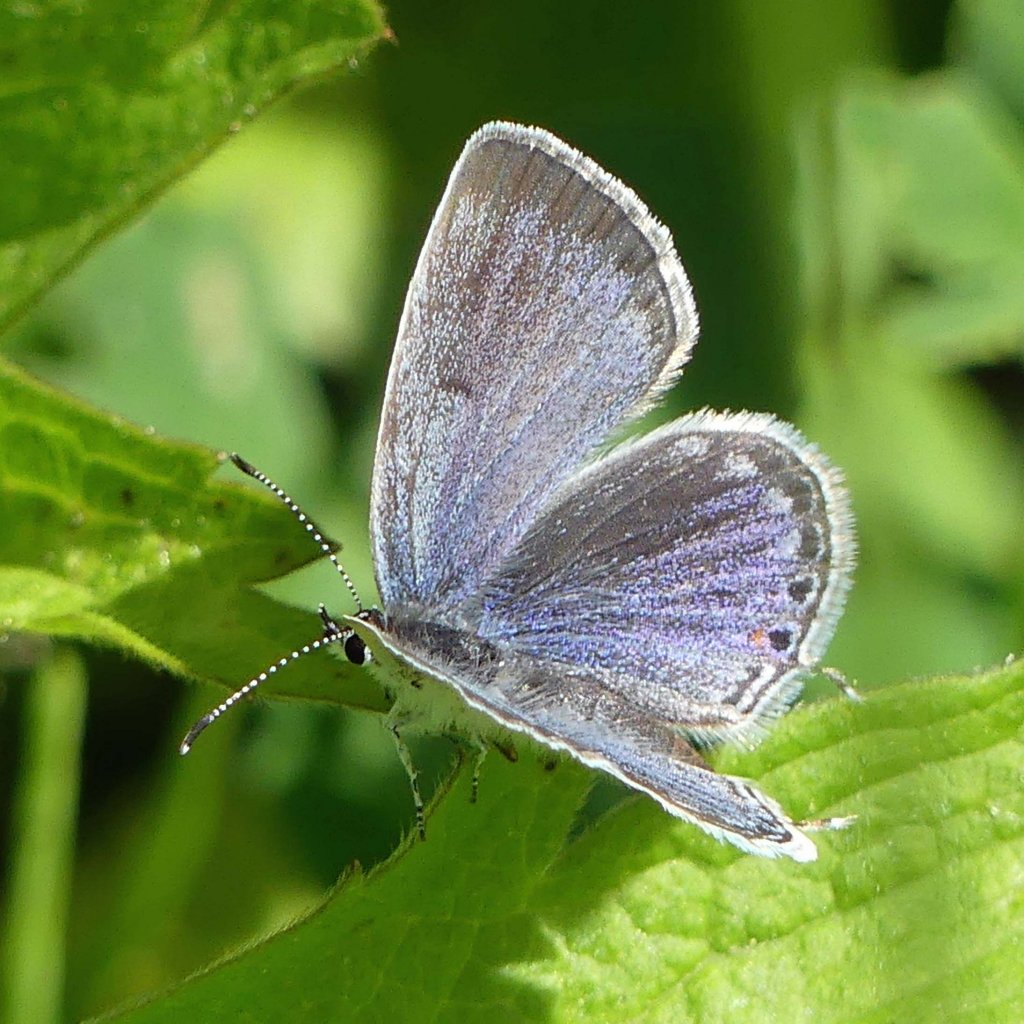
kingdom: Animalia
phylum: Arthropoda
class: Insecta
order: Lepidoptera
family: Lycaenidae
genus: Elkalyce
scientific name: Elkalyce comyntas
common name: Eastern Tailed-Blue
